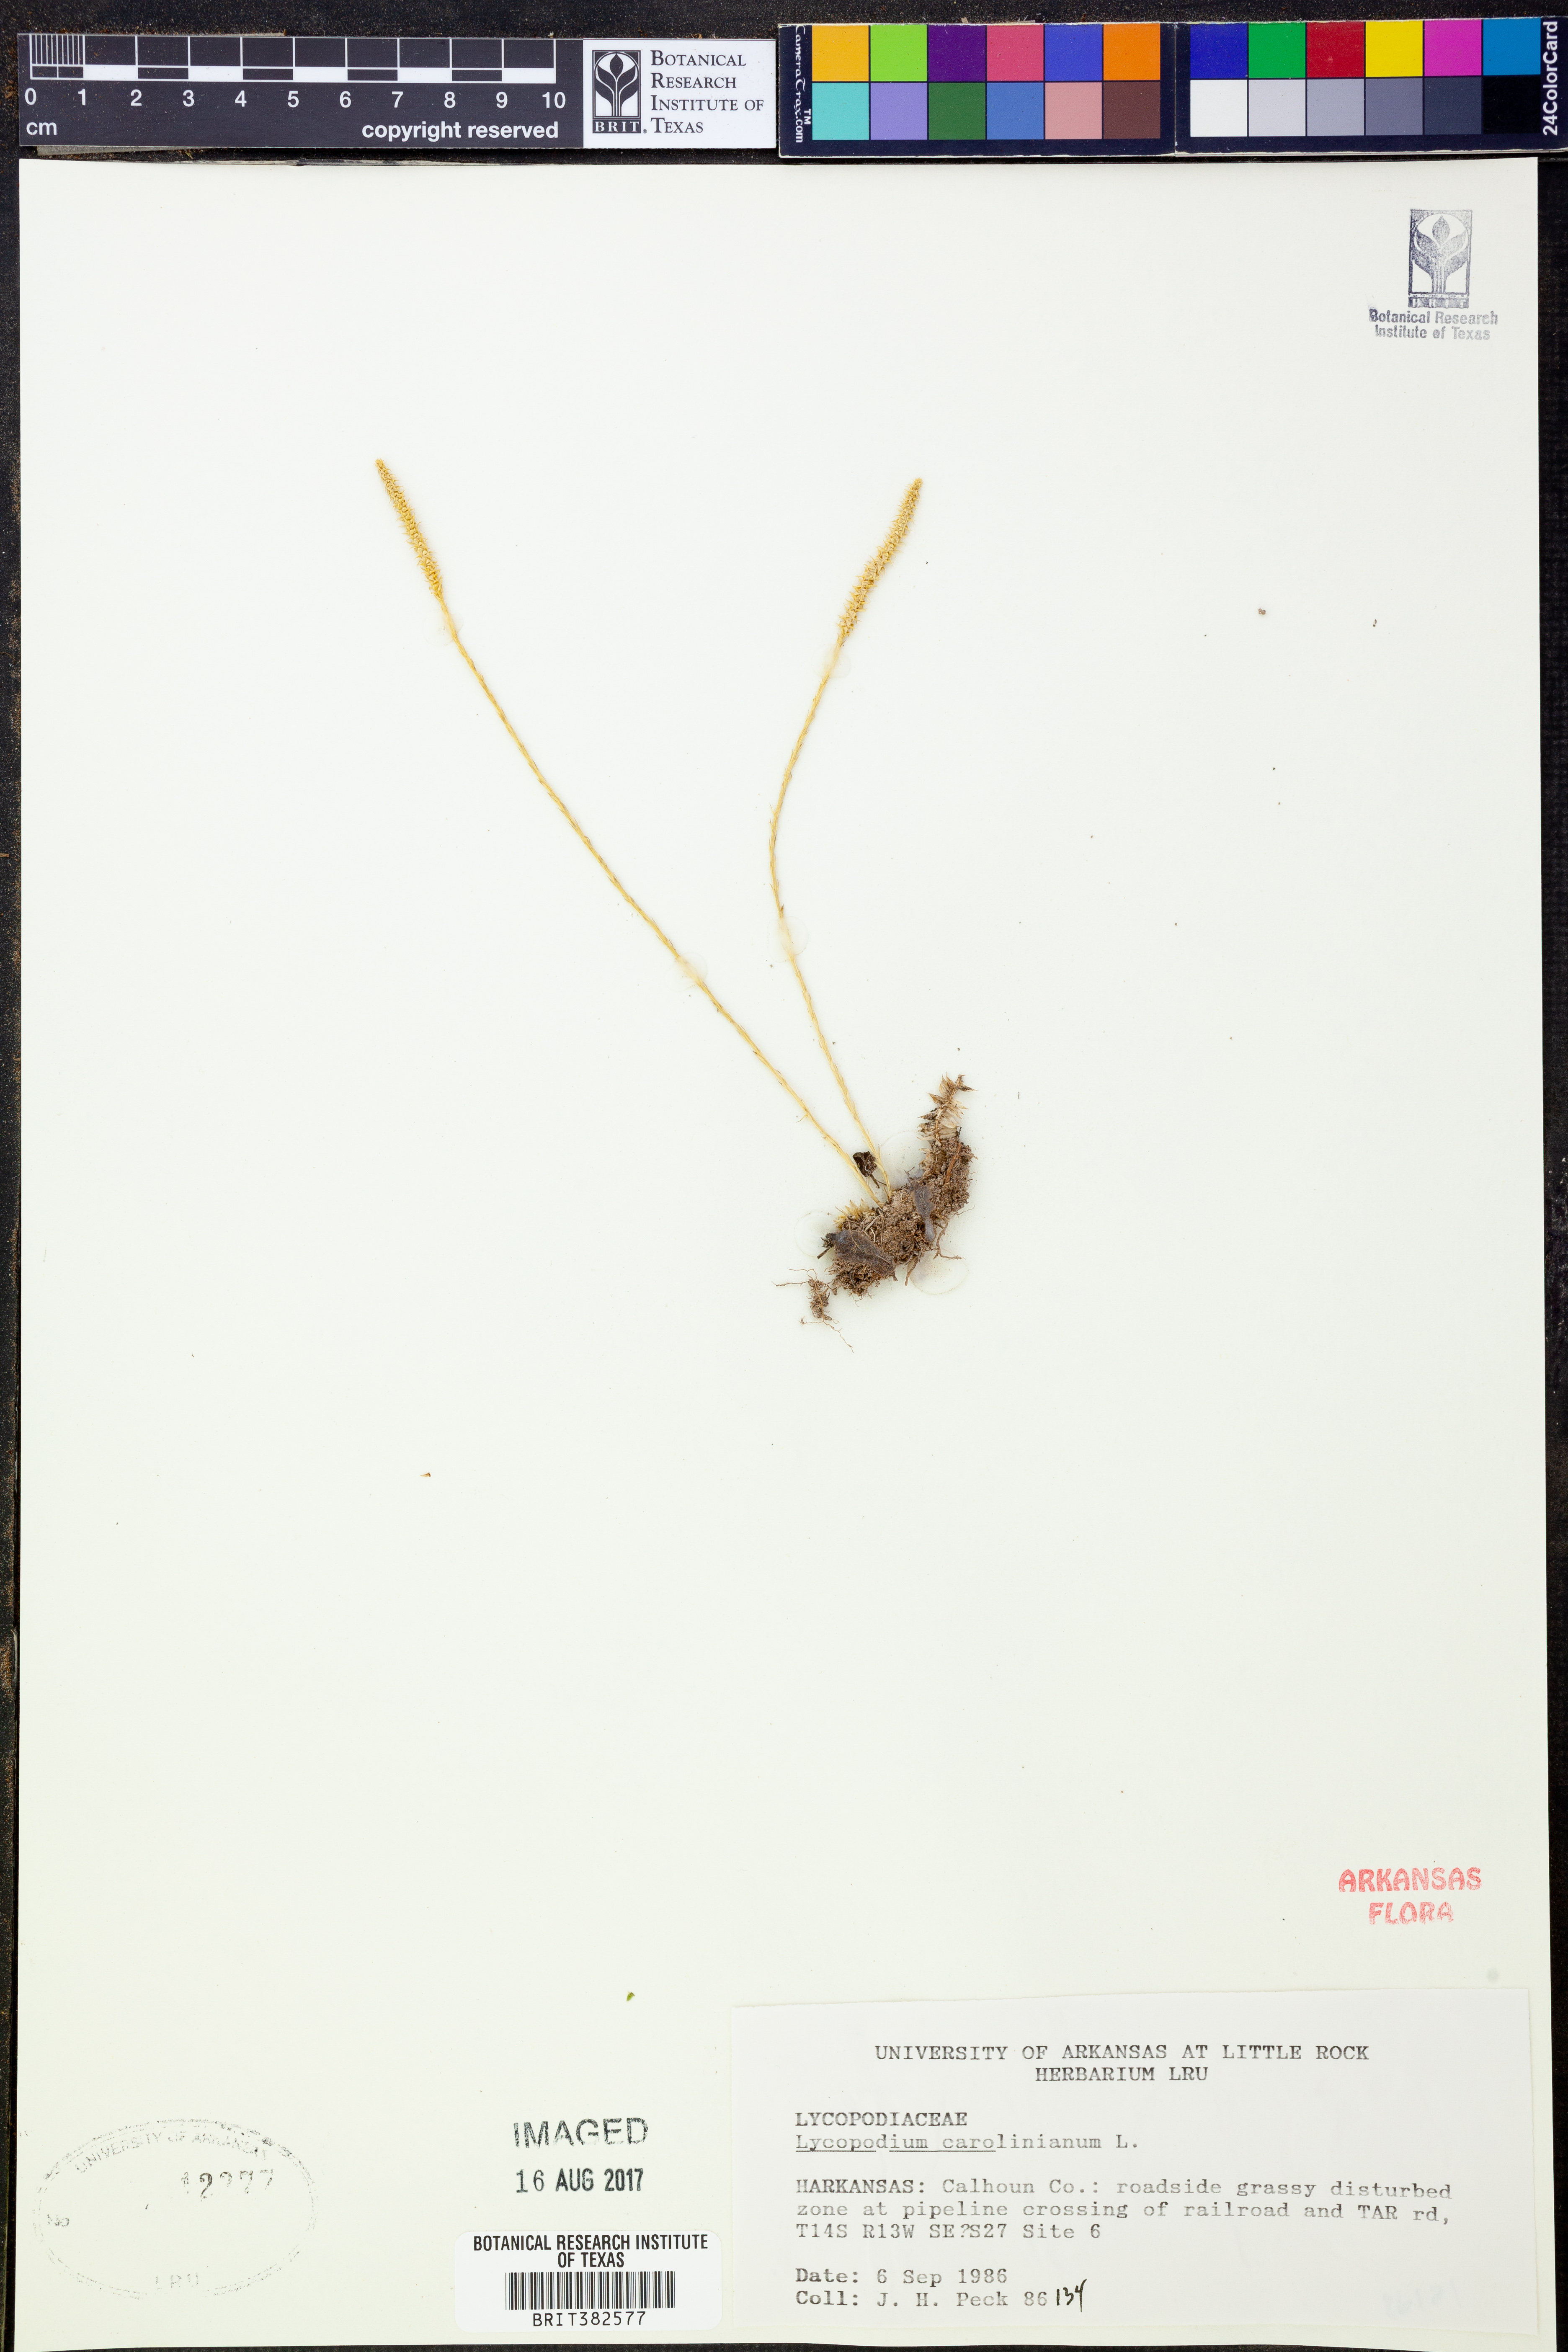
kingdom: Plantae
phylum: Tracheophyta
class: Lycopodiopsida
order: Lycopodiales
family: Lycopodiaceae
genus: Pseudolycopodiella
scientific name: Pseudolycopodiella caroliniana
